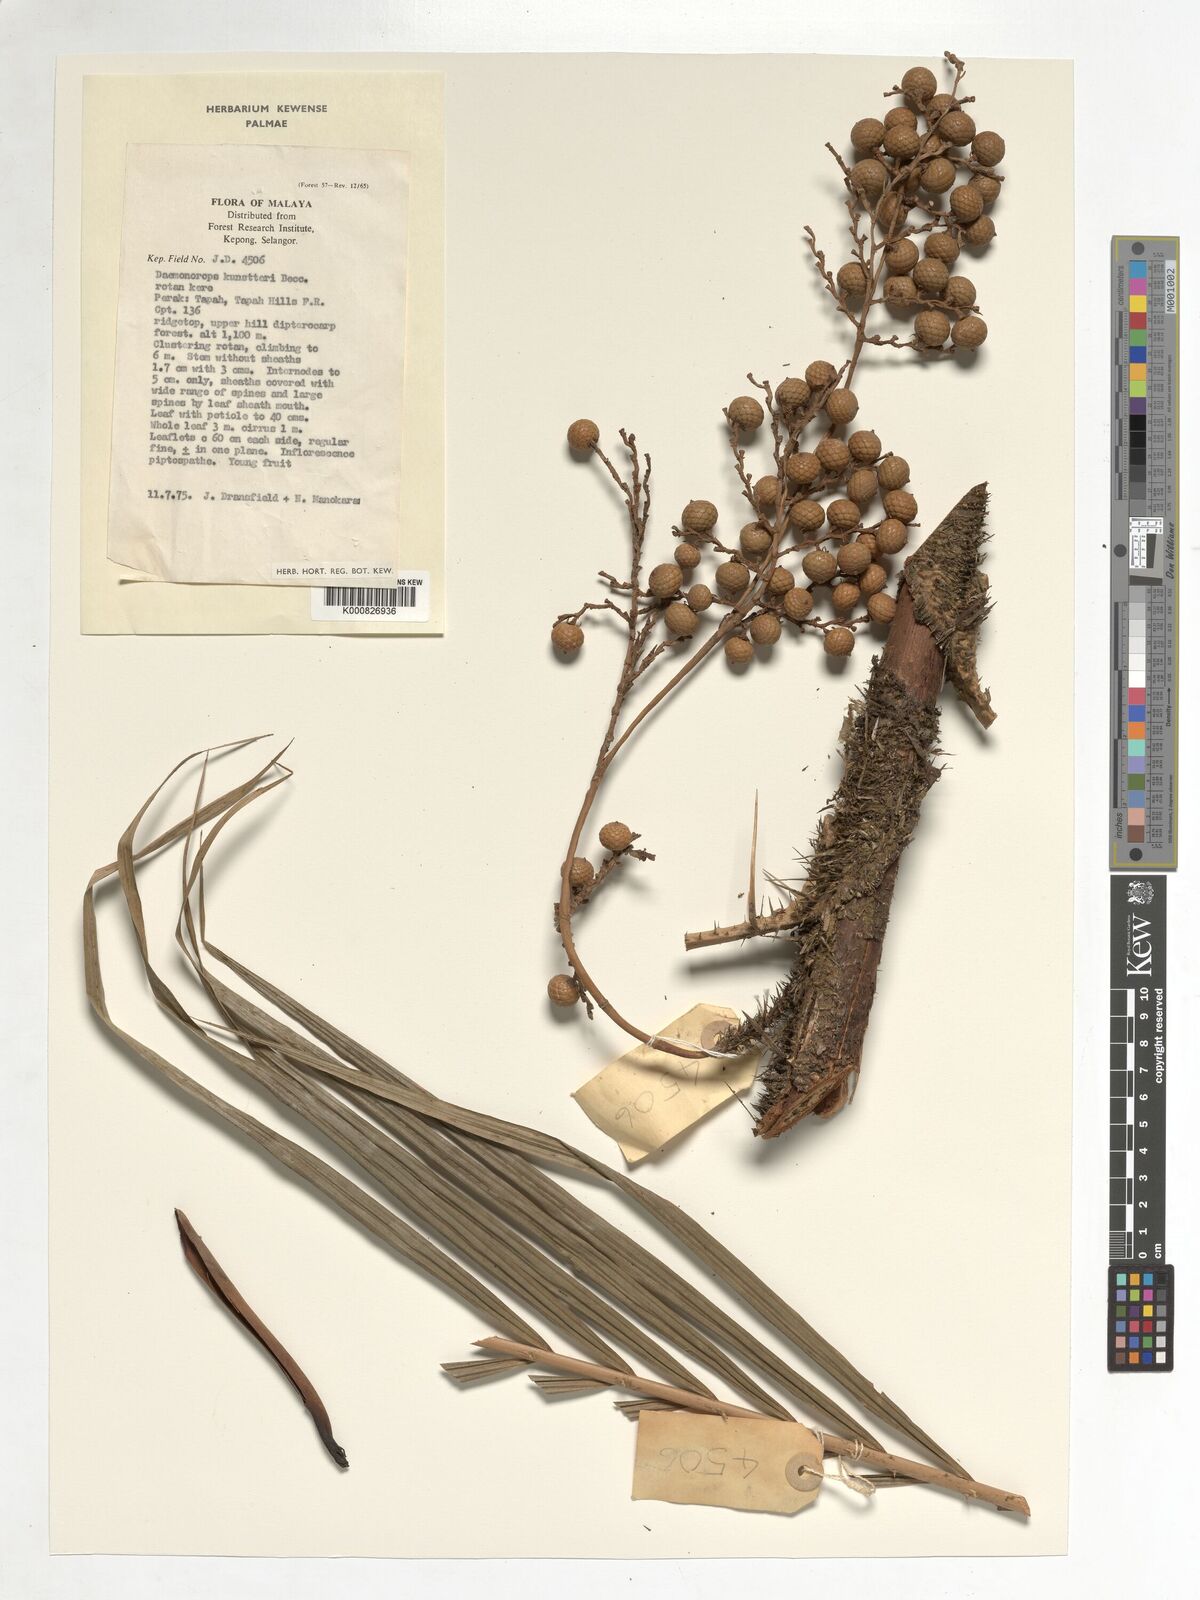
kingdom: Plantae
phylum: Tracheophyta
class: Liliopsida
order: Arecales
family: Arecaceae
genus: Calamus
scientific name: Calamus kunstleri
